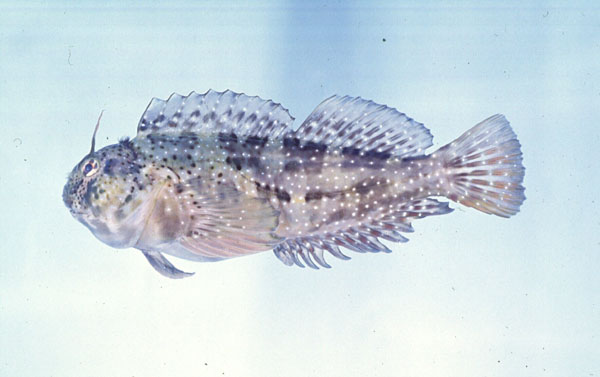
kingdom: Animalia
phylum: Chordata
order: Perciformes
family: Blenniidae
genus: Pereulixia
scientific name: Pereulixia kosiensis
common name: Kosi rockskipper
